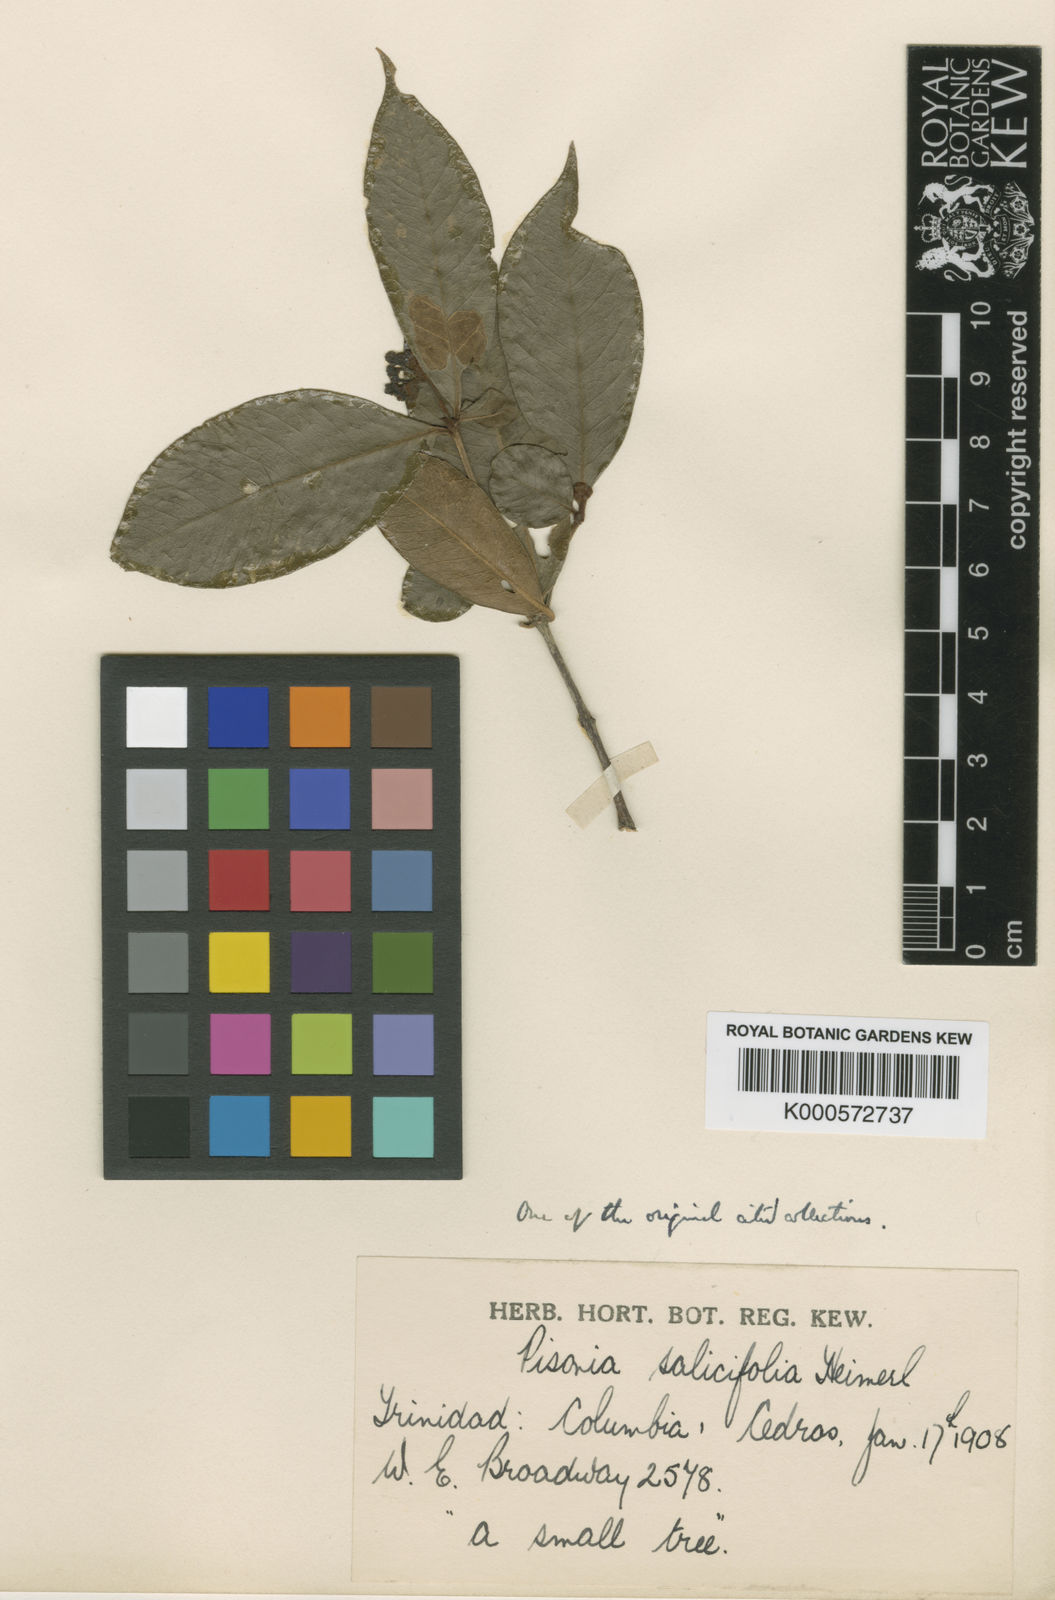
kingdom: Plantae
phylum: Tracheophyta
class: Magnoliopsida
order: Caryophyllales
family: Nyctaginaceae
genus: Guapira
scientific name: Guapira salicifolia
